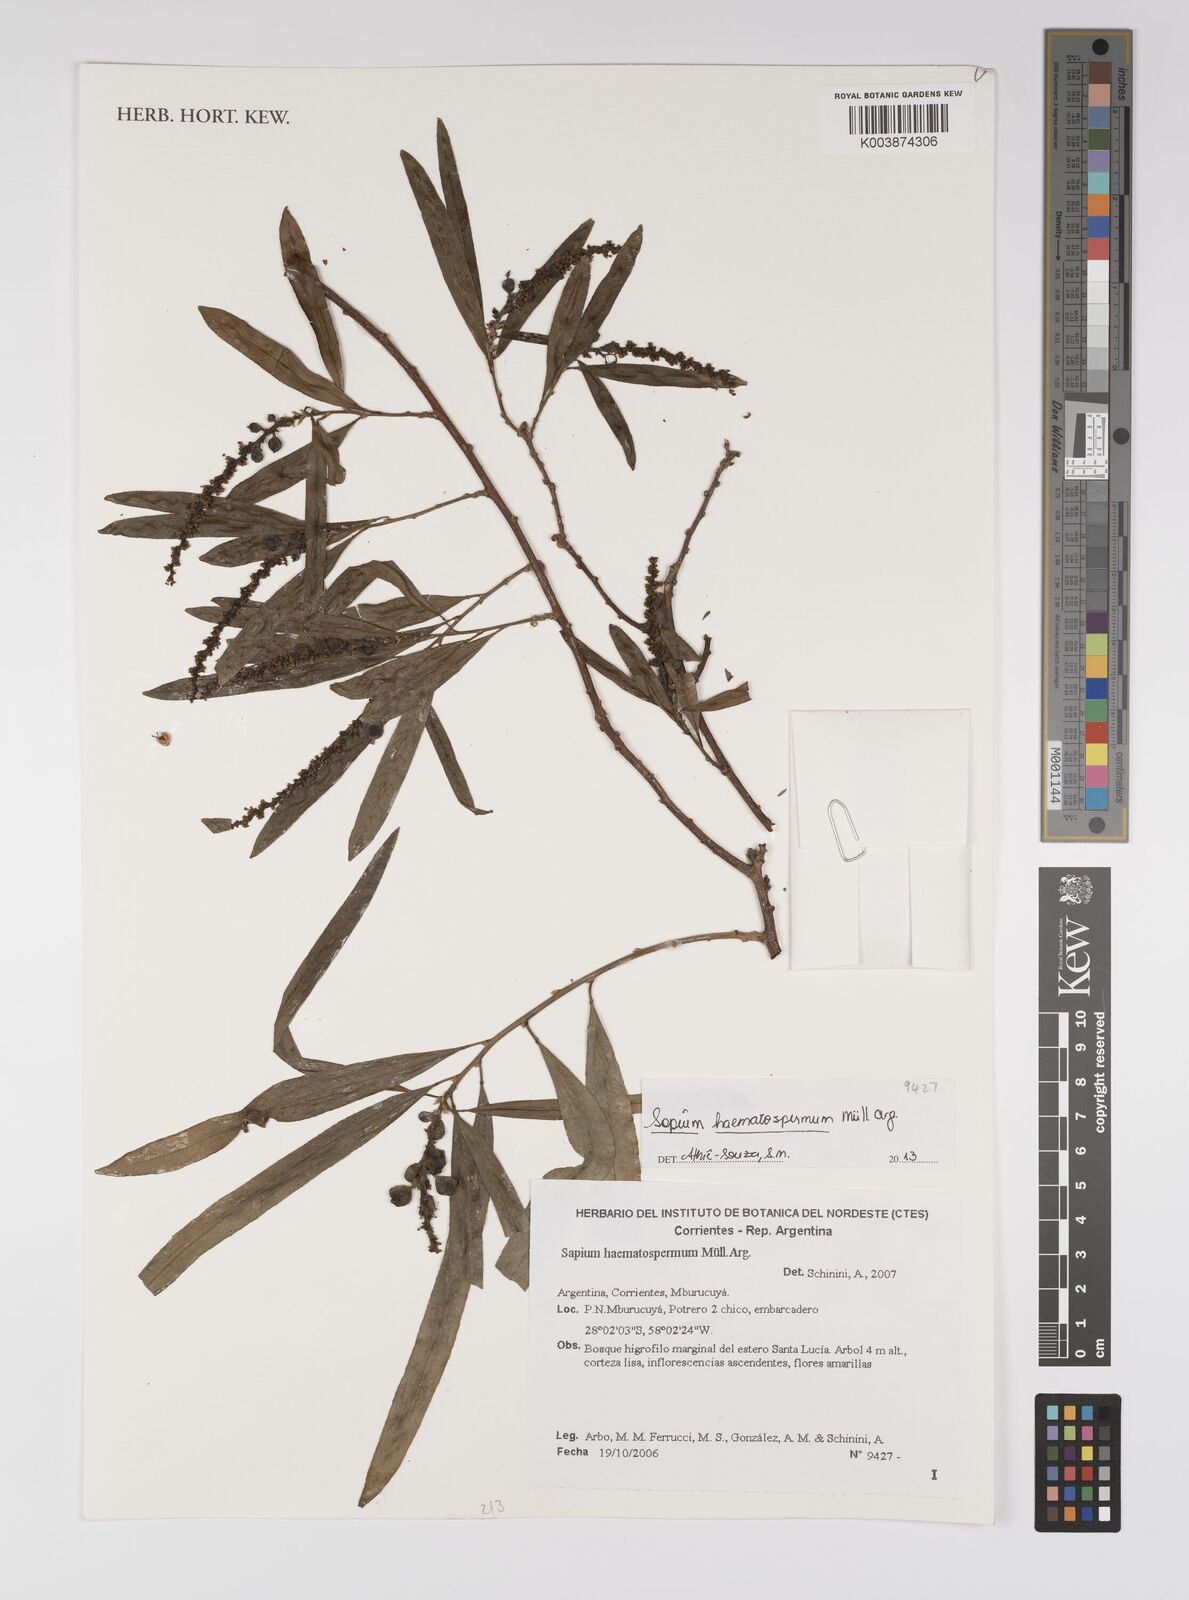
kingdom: Plantae
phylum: Tracheophyta
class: Magnoliopsida
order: Malpighiales
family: Euphorbiaceae
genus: Sapium
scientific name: Sapium haematospermum
